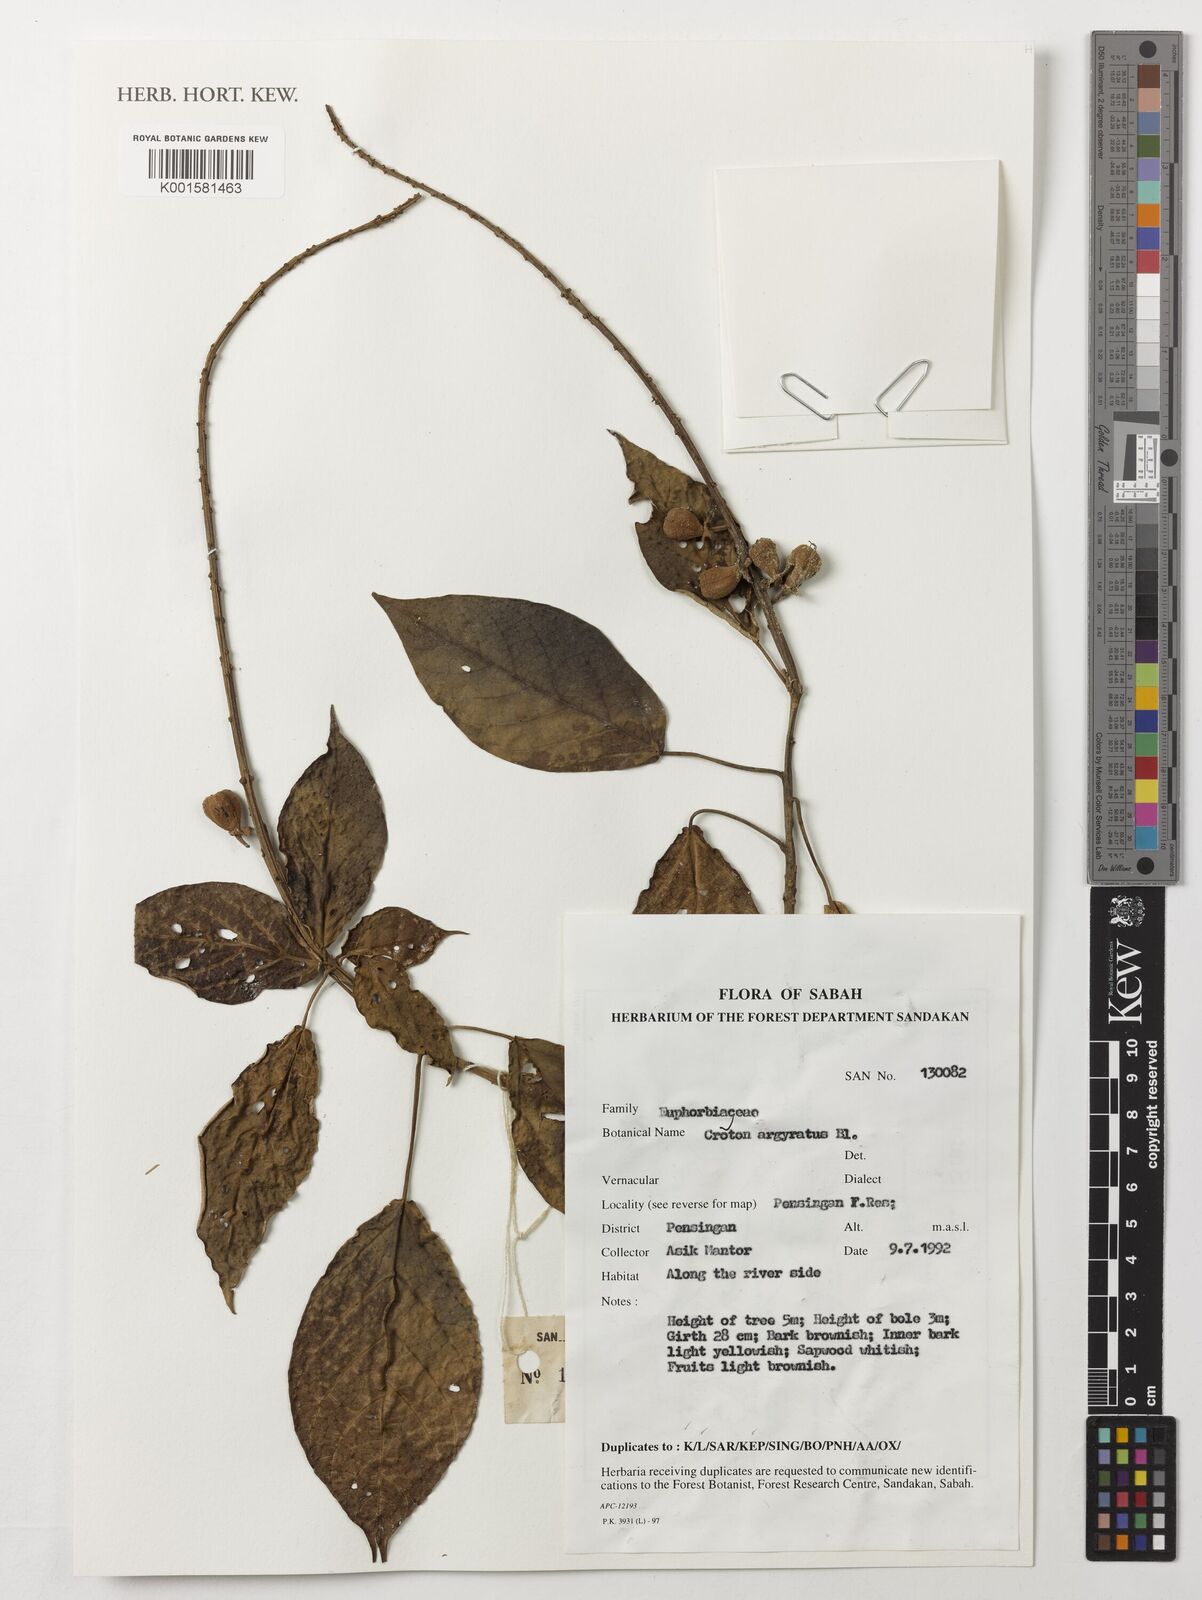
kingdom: Plantae
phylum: Tracheophyta
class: Magnoliopsida
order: Malpighiales
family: Euphorbiaceae
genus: Croton
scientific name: Croton argyratus
